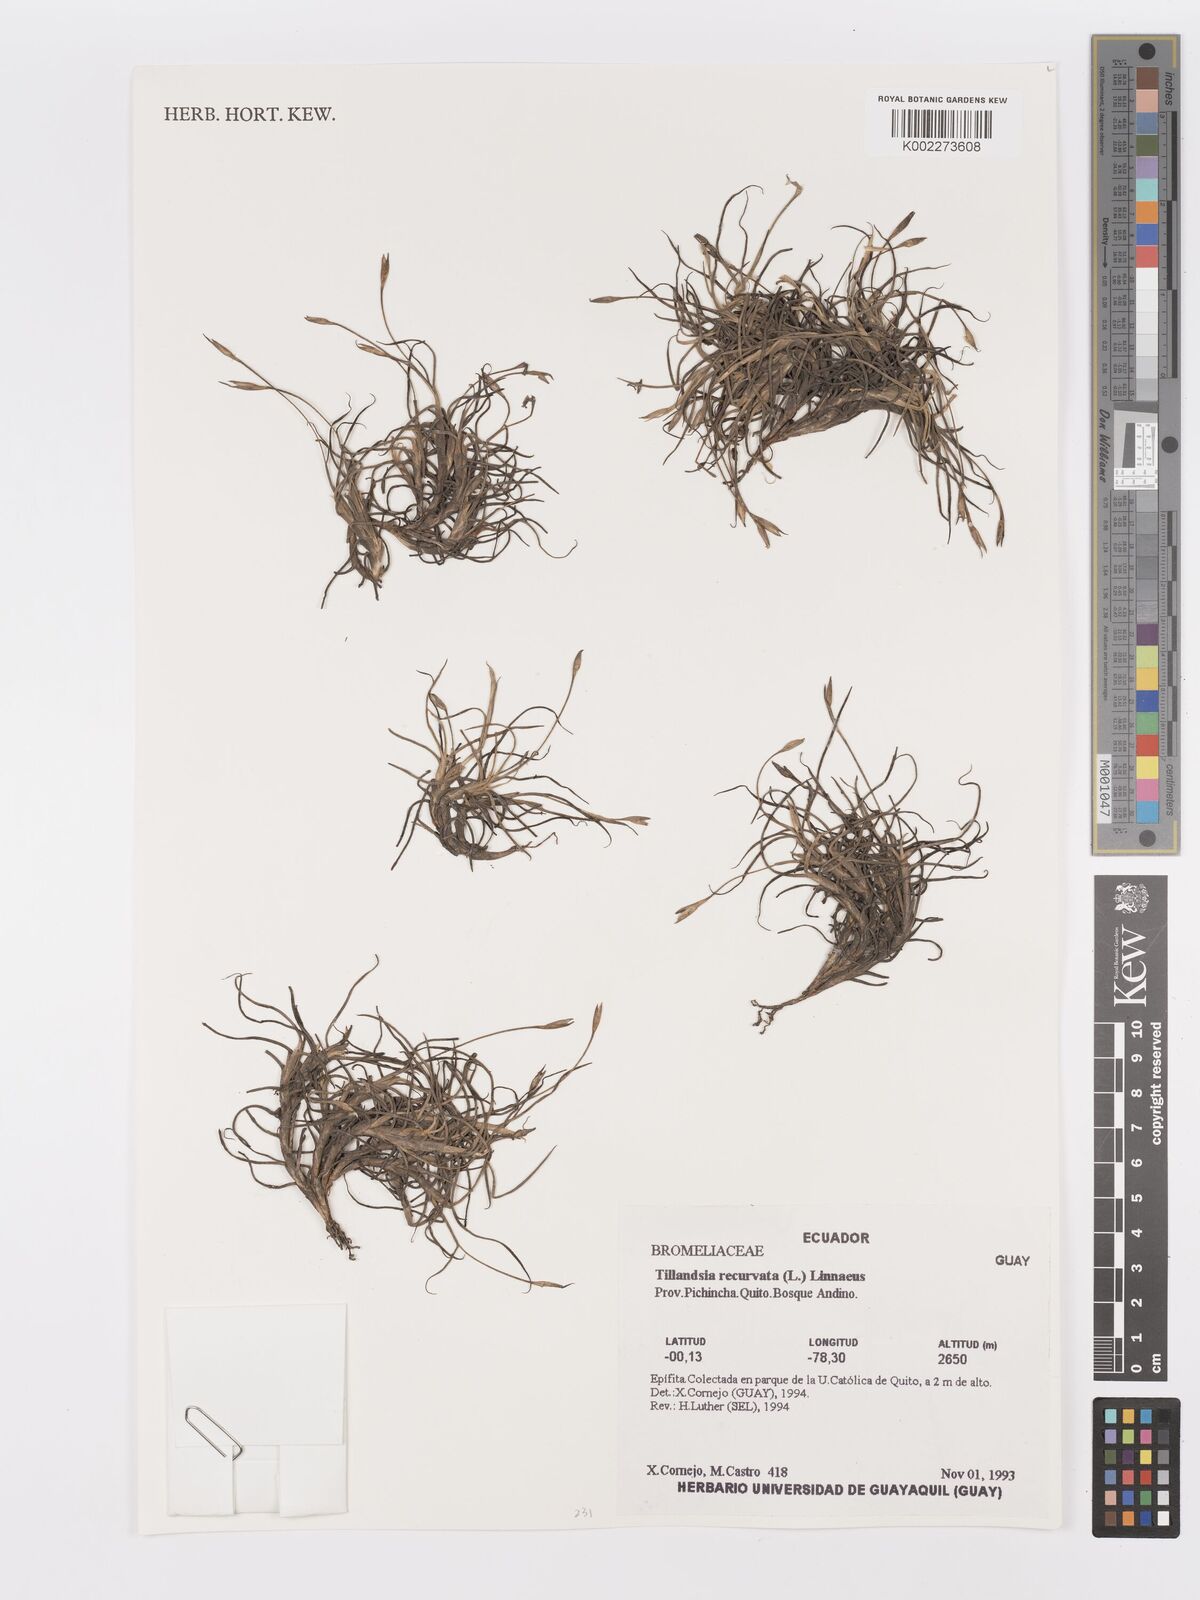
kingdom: Plantae
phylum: Tracheophyta
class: Liliopsida
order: Poales
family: Bromeliaceae
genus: Tillandsia
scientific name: Tillandsia recurvata
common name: Small ballmoss
